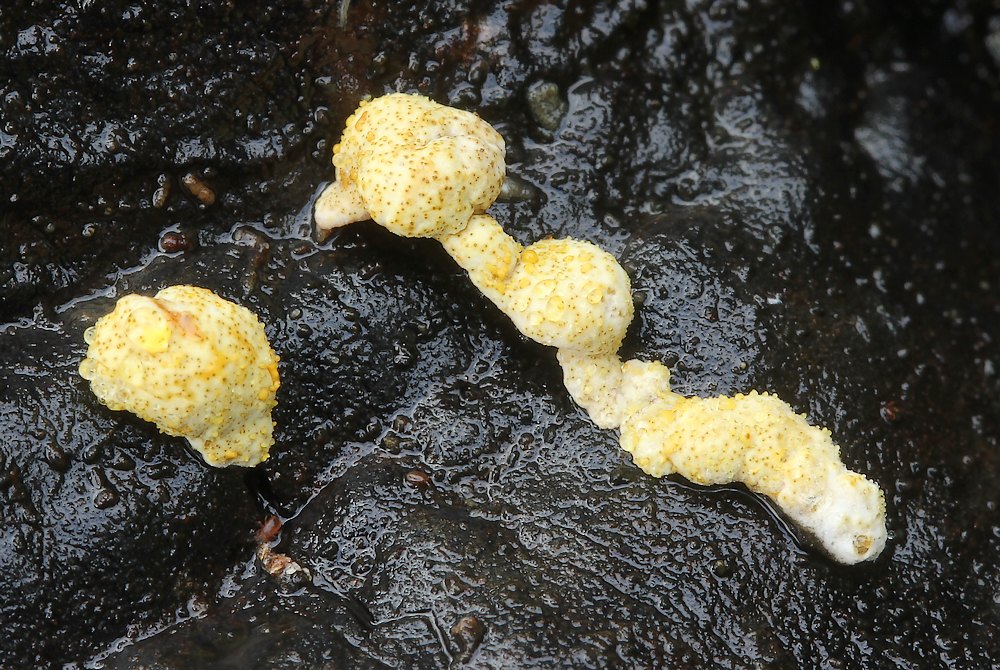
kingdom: Fungi
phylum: Ascomycota
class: Sordariomycetes
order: Hypocreales
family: Hypocreaceae
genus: Trichoderma
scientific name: Trichoderma pulvinatum
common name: snyltende kødkerne
